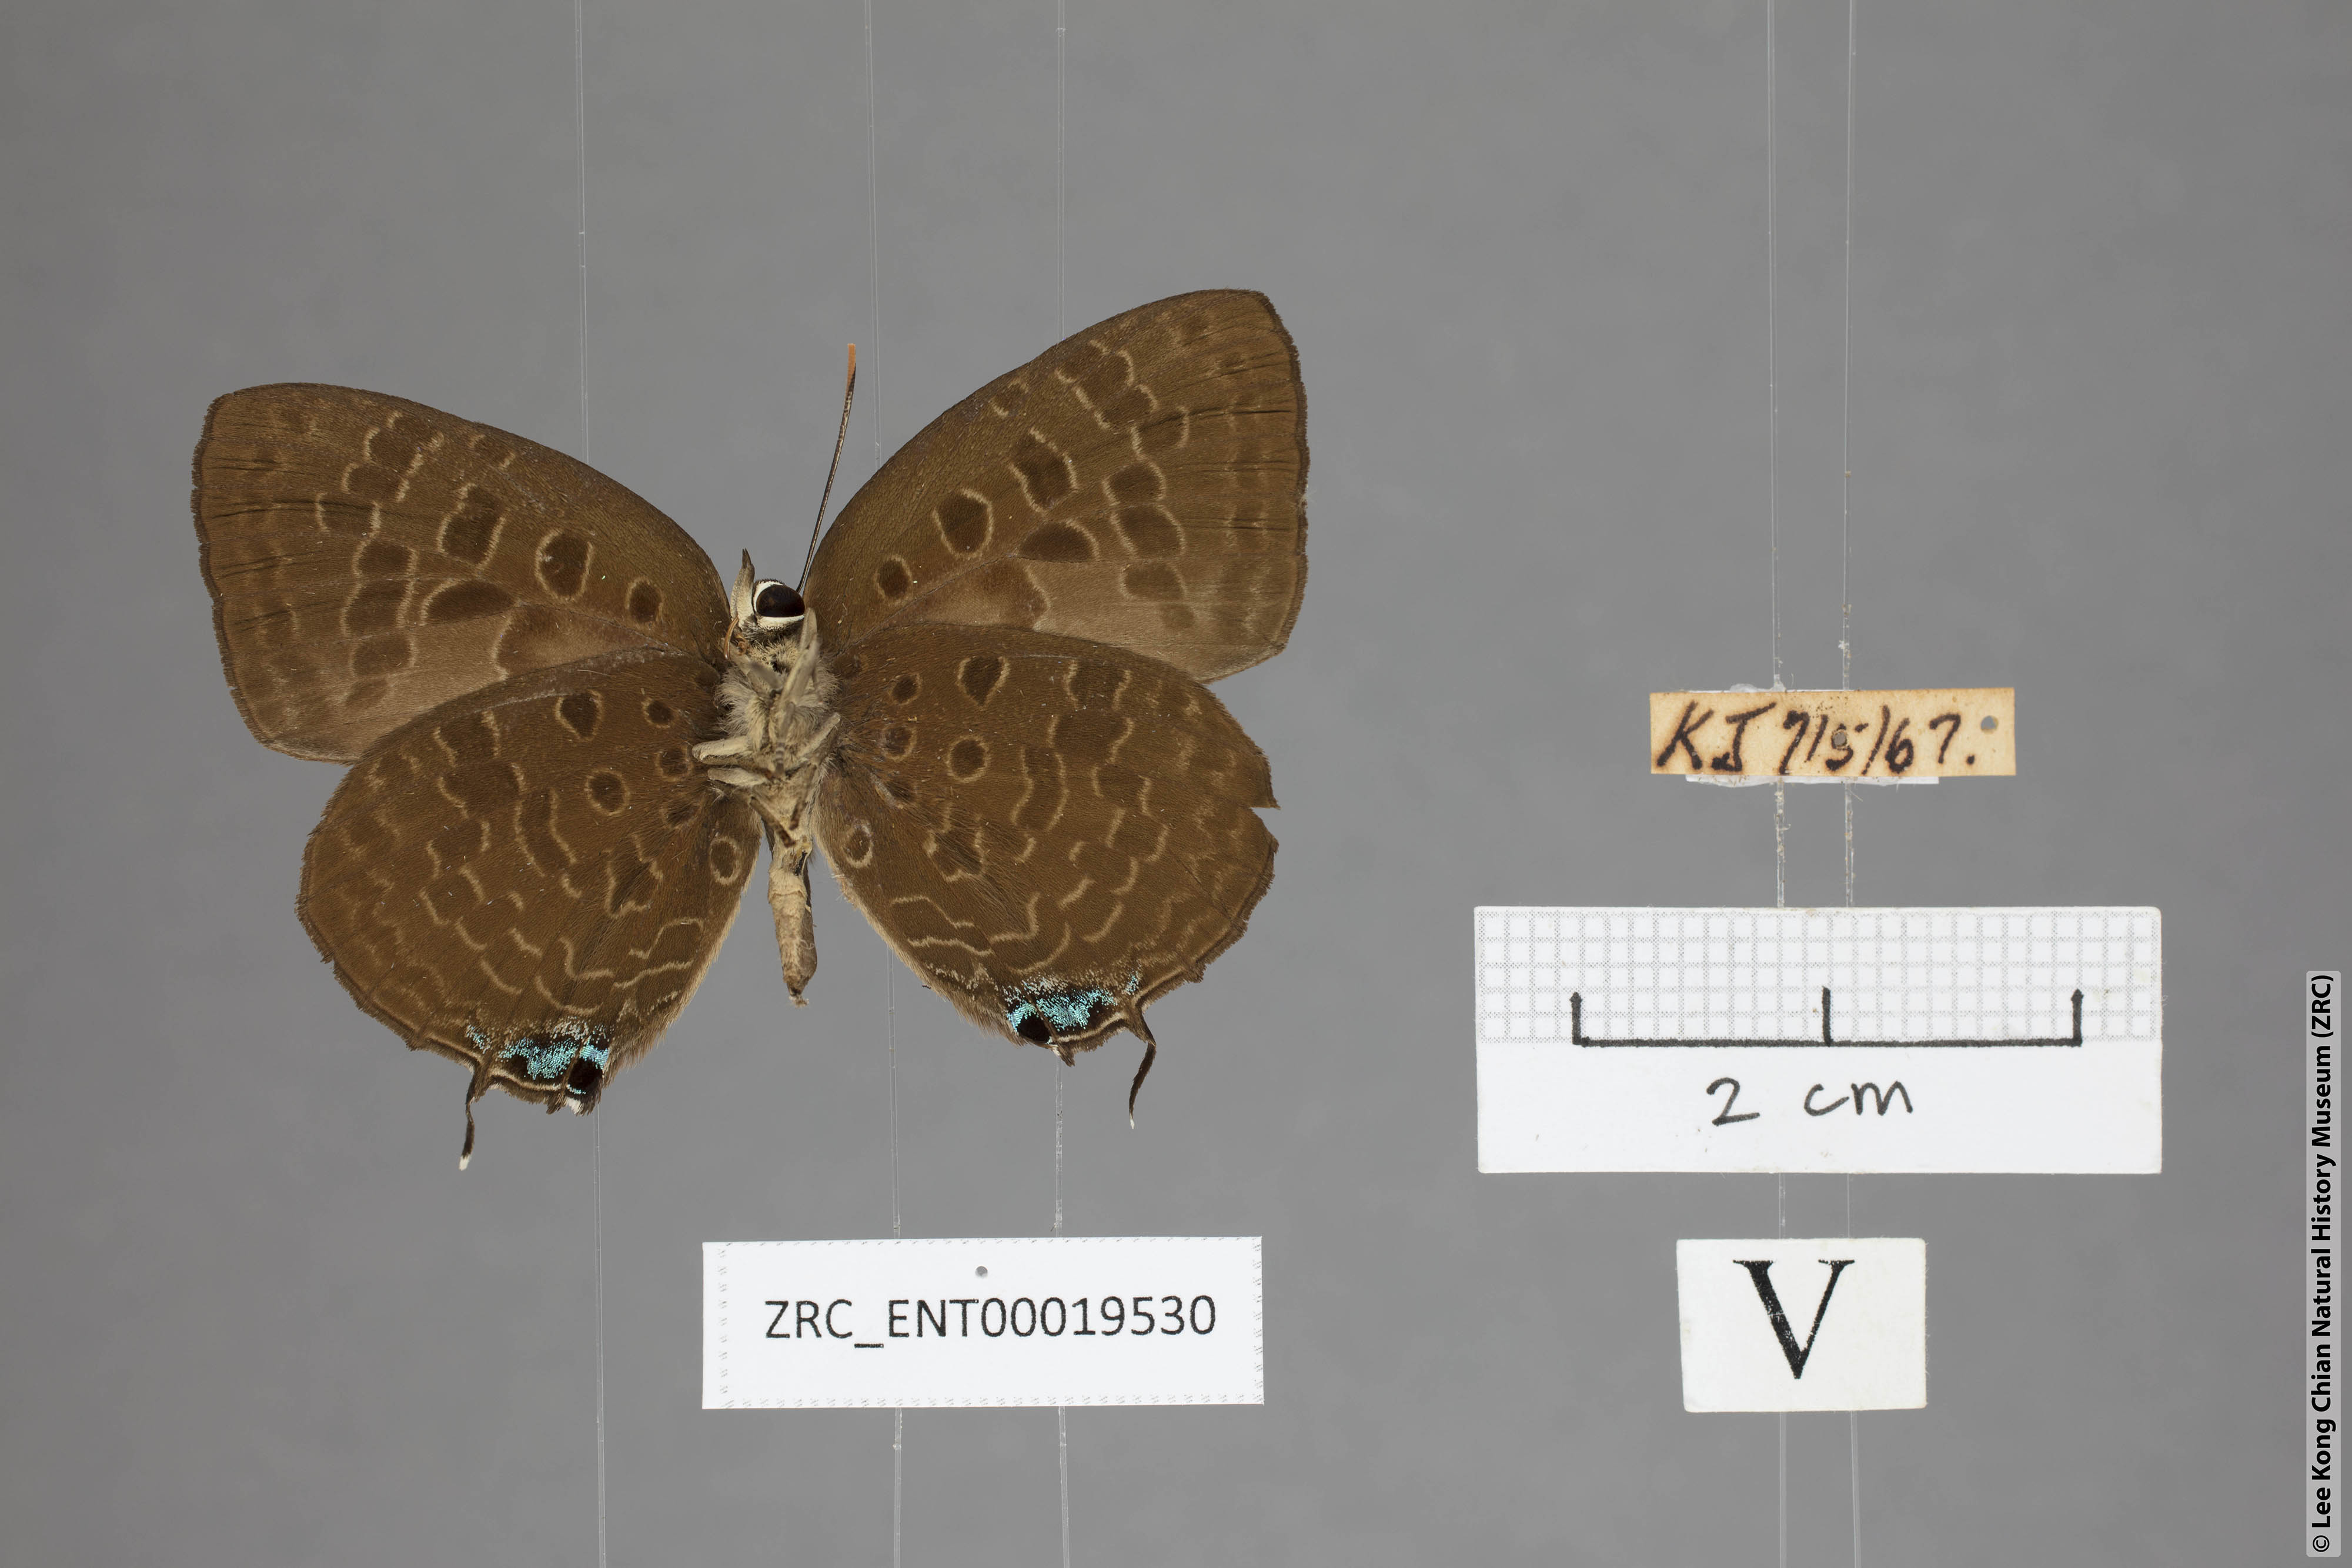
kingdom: Animalia
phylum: Arthropoda
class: Insecta
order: Lepidoptera
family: Lycaenidae
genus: Arhopala
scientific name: Arhopala horsfieldi
